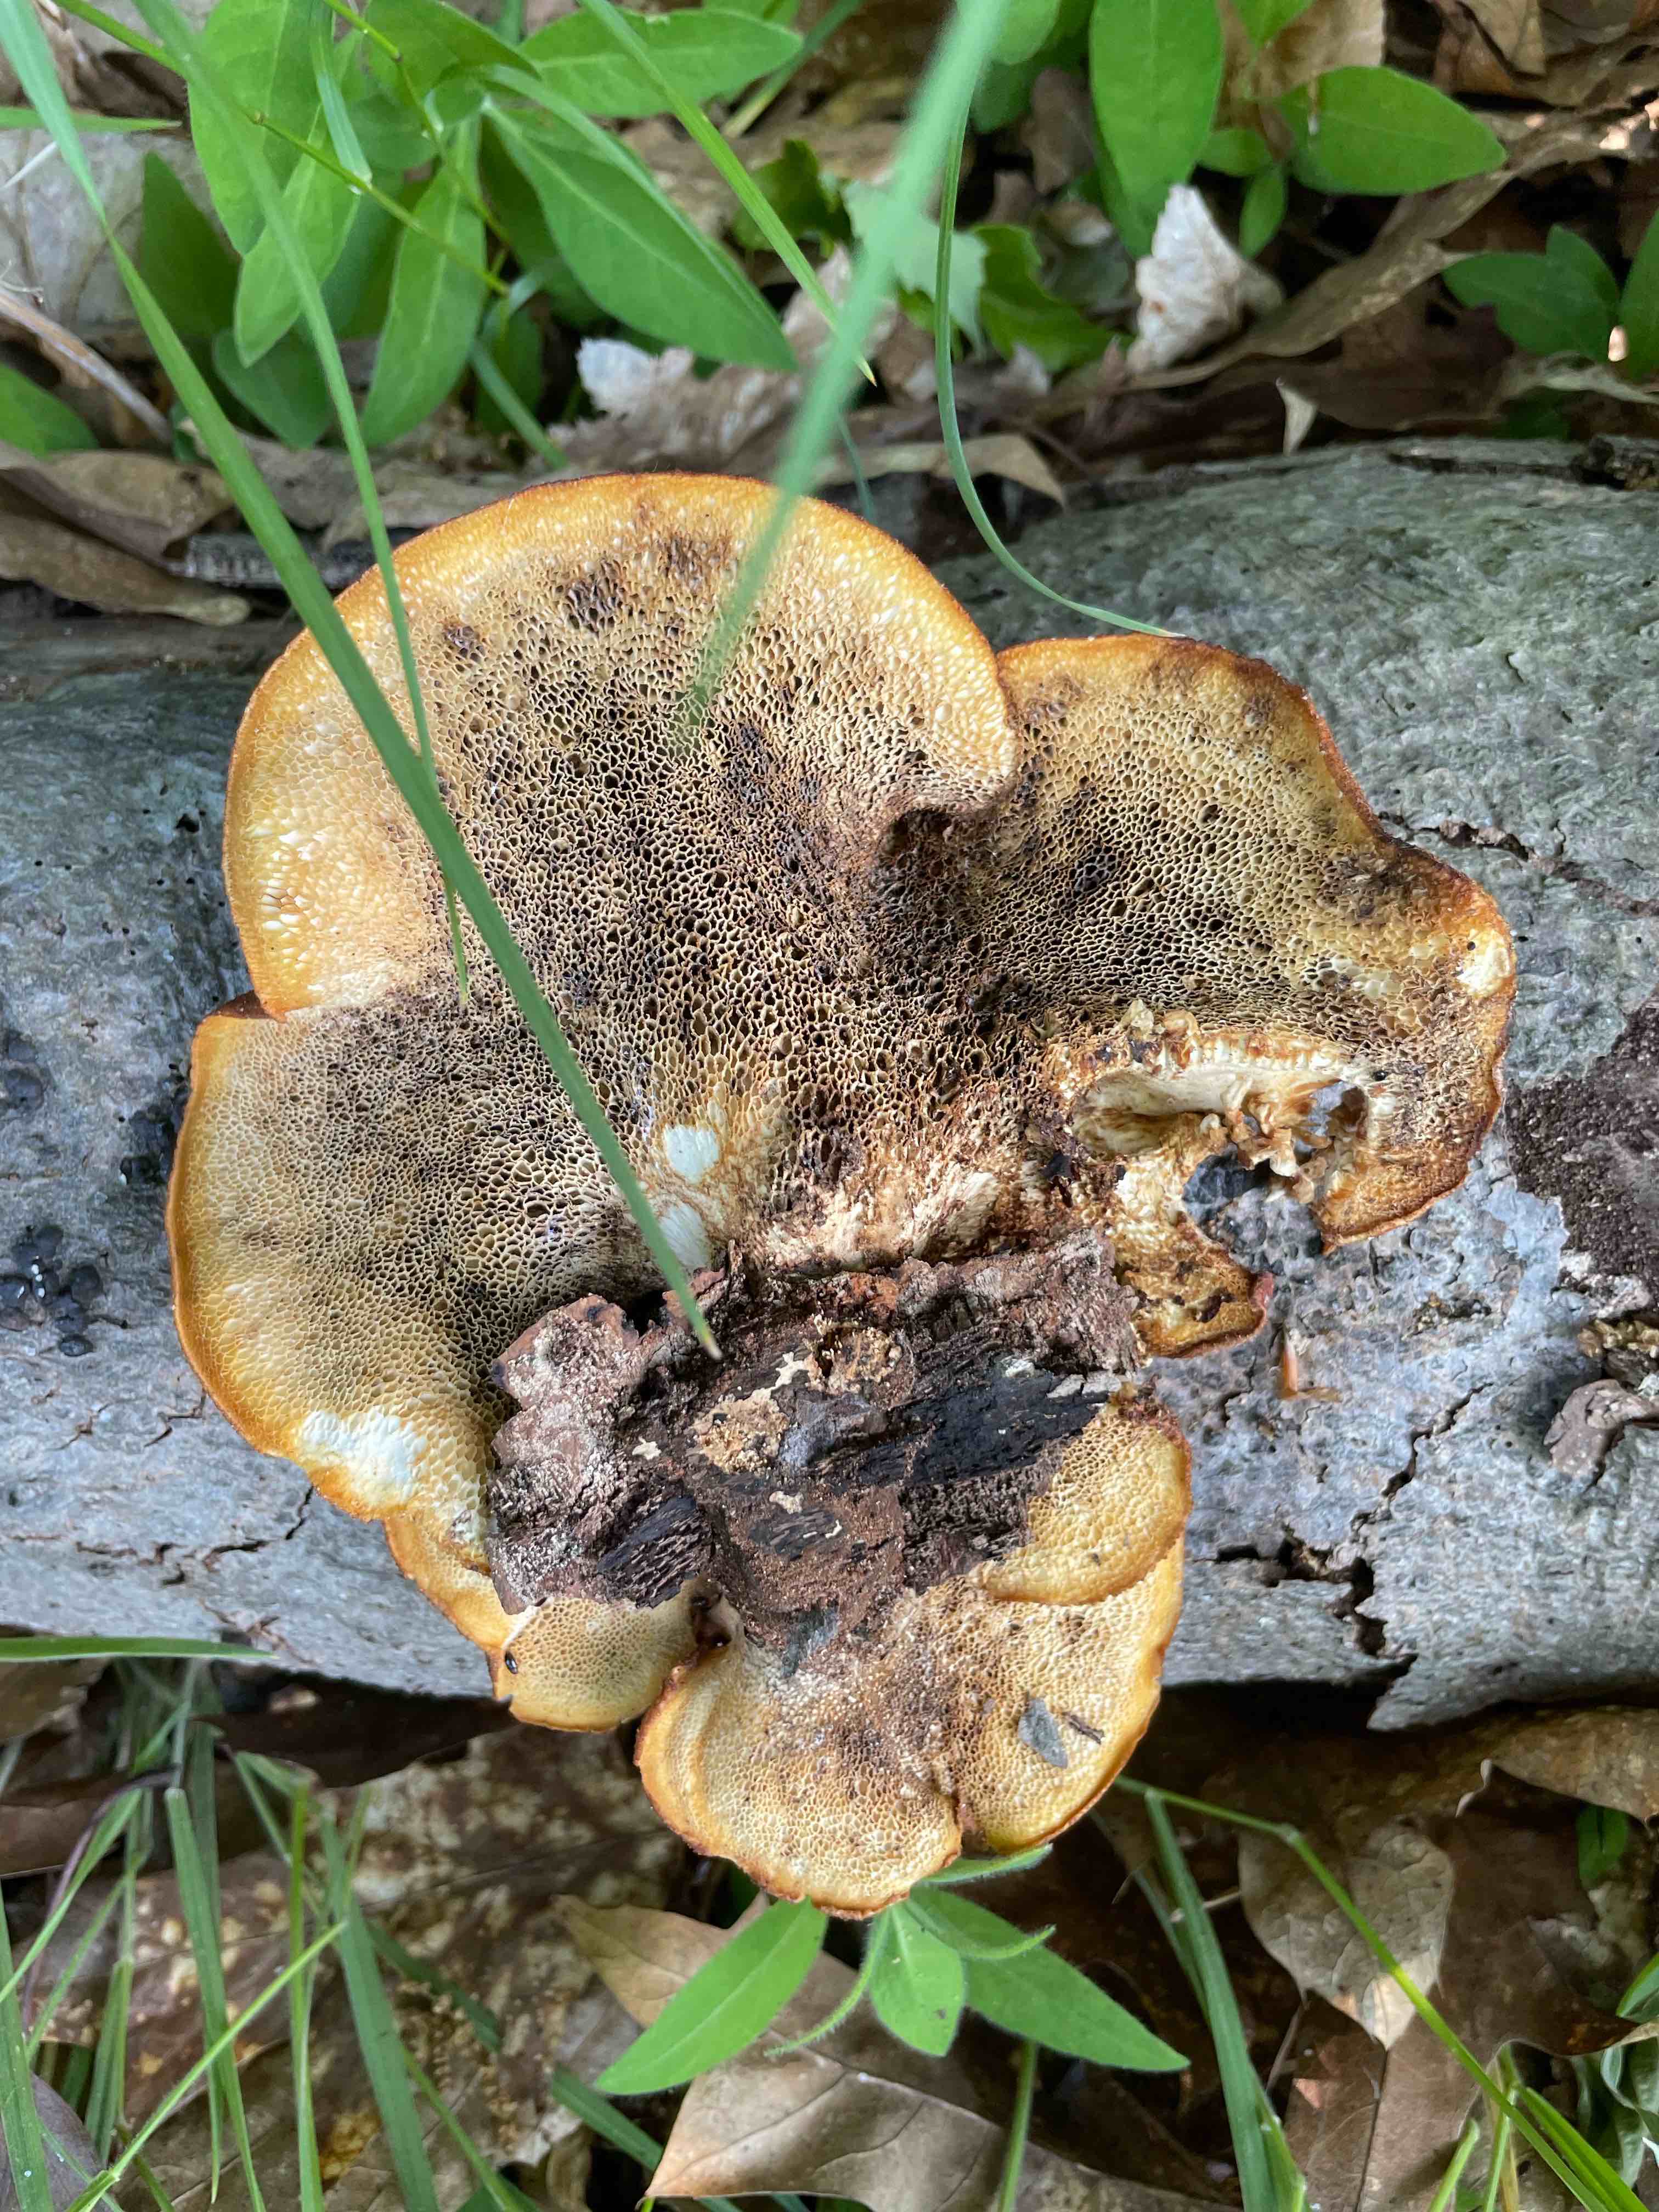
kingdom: Fungi
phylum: Basidiomycota
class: Agaricomycetes
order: Polyporales
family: Polyporaceae
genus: Cerioporus
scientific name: Cerioporus squamosus
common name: skællet stilkporesvamp
